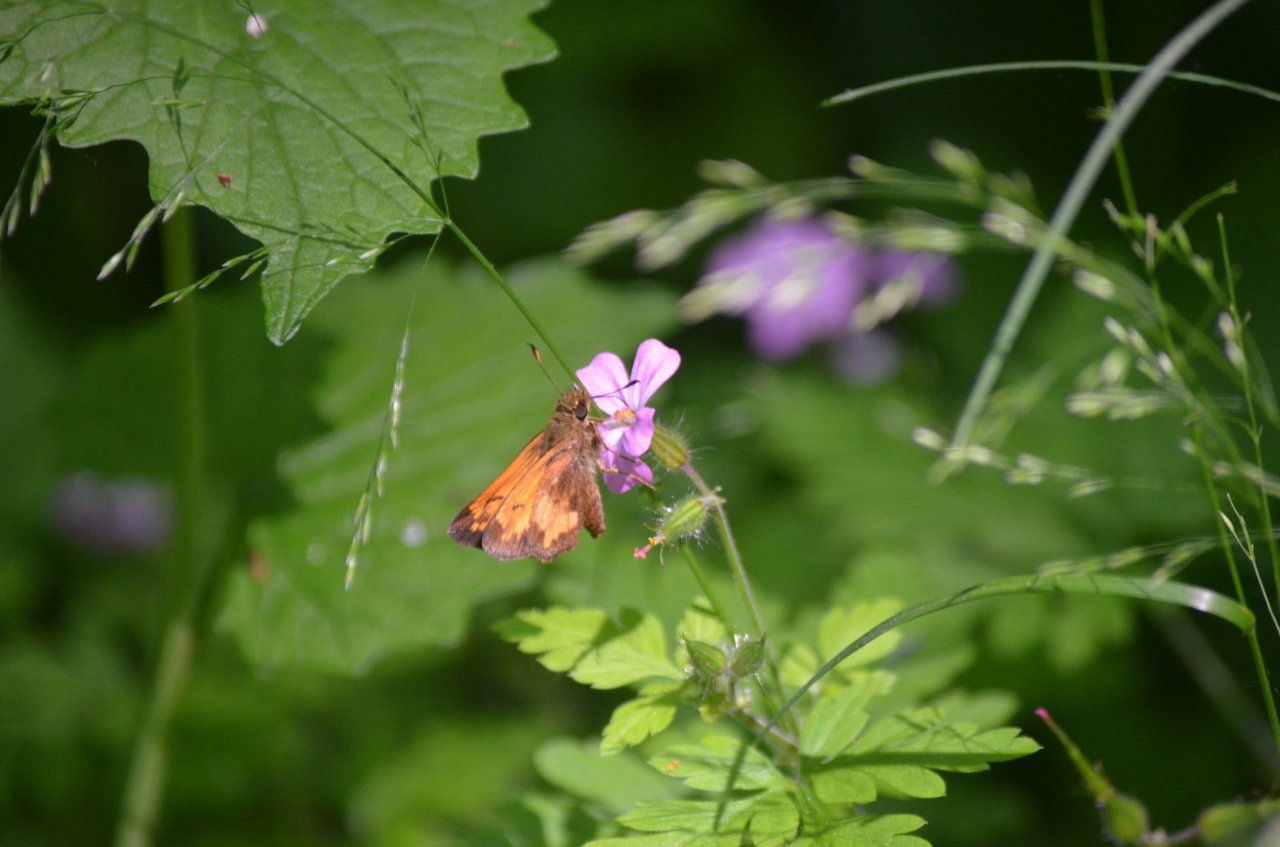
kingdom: Animalia
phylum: Arthropoda
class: Insecta
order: Lepidoptera
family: Hesperiidae
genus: Lon
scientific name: Lon hobomok
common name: Hobomok Skipper
